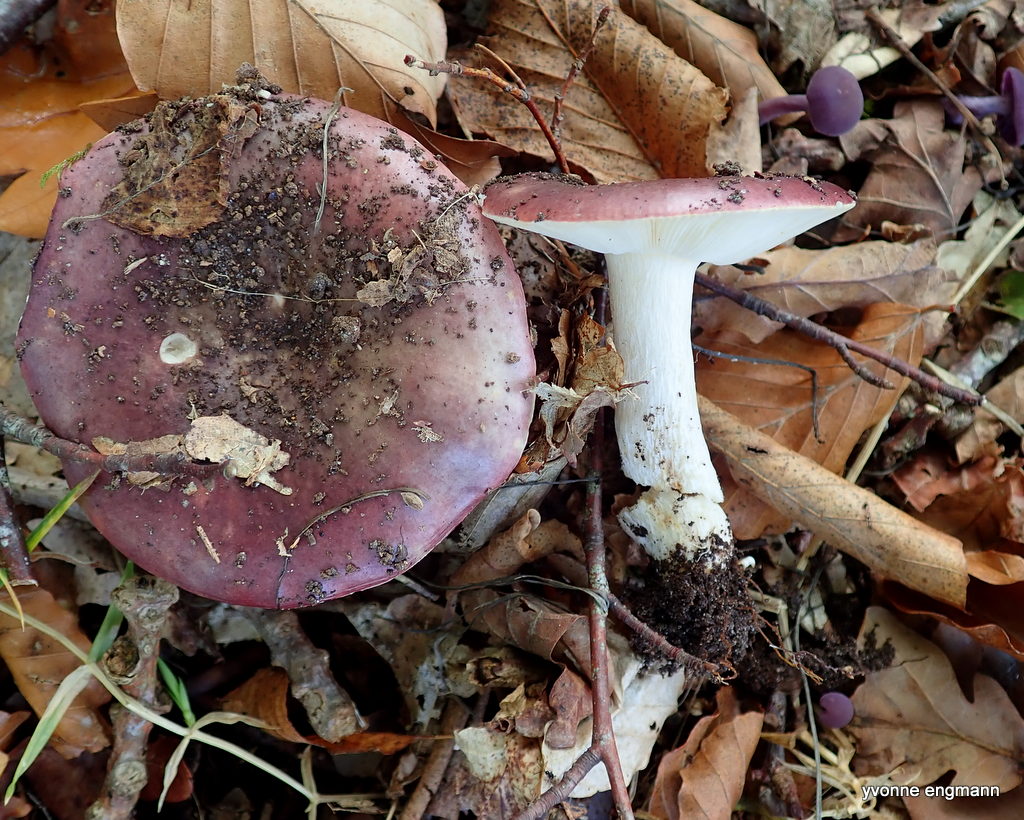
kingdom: Fungi
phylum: Basidiomycota
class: Agaricomycetes
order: Russulales
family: Russulaceae
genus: Russula
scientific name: Russula
